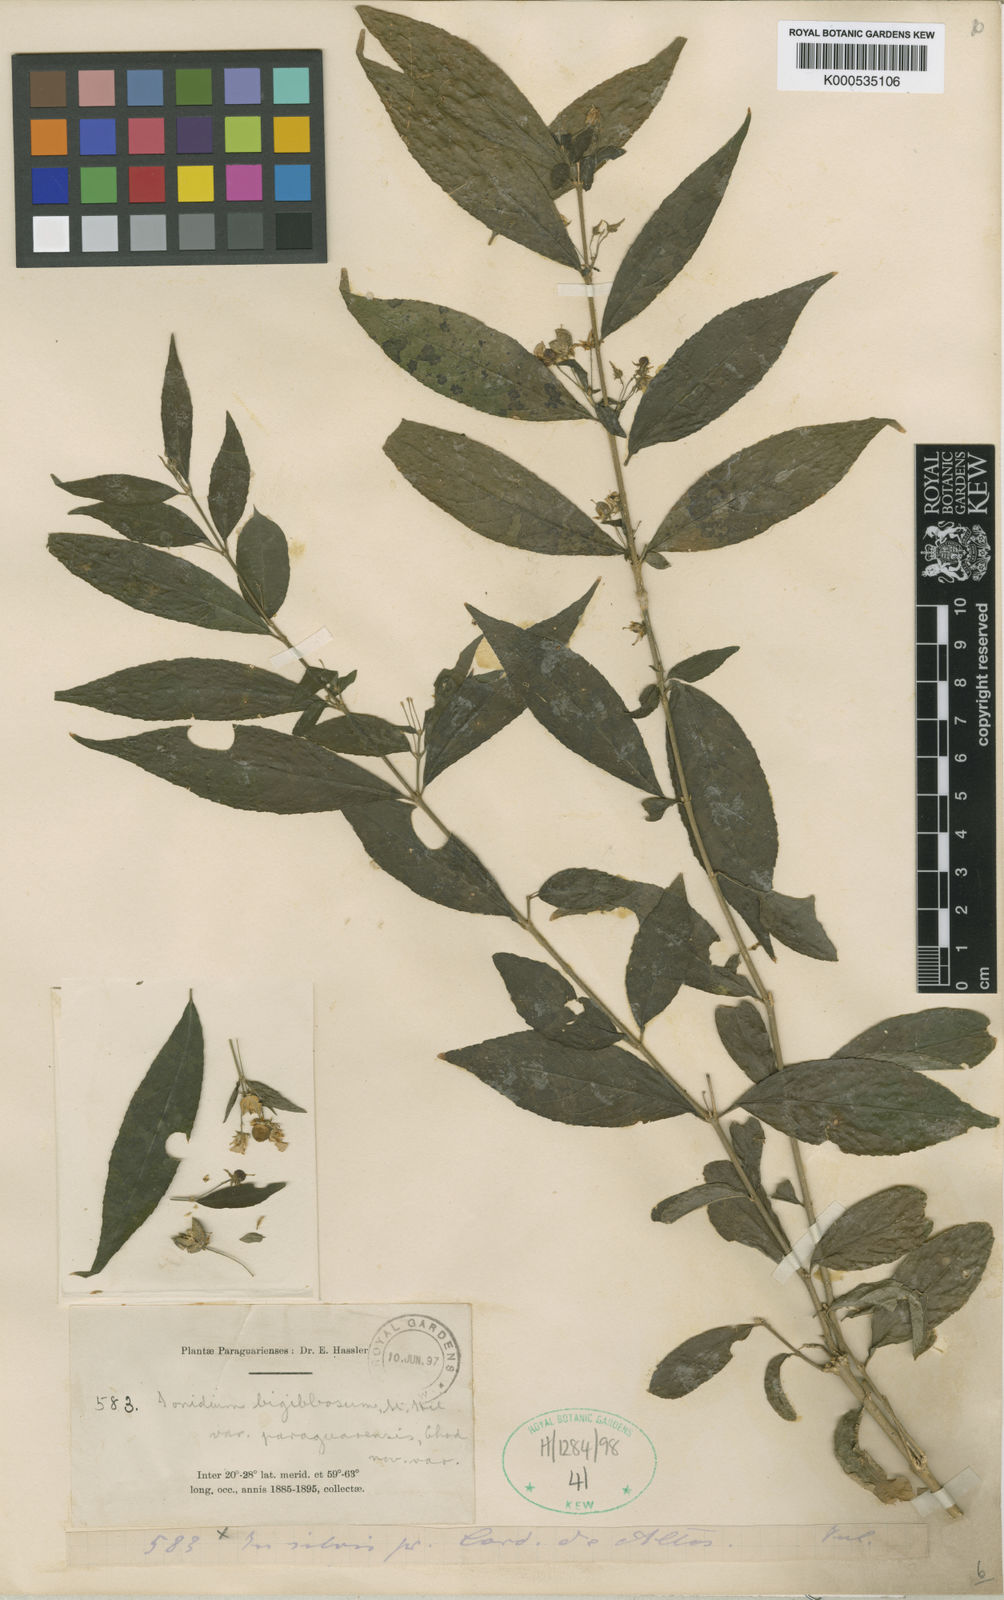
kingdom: Plantae
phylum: Tracheophyta
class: Magnoliopsida
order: Malpighiales
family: Violaceae
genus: Pombalia
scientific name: Pombalia bigibbosa
